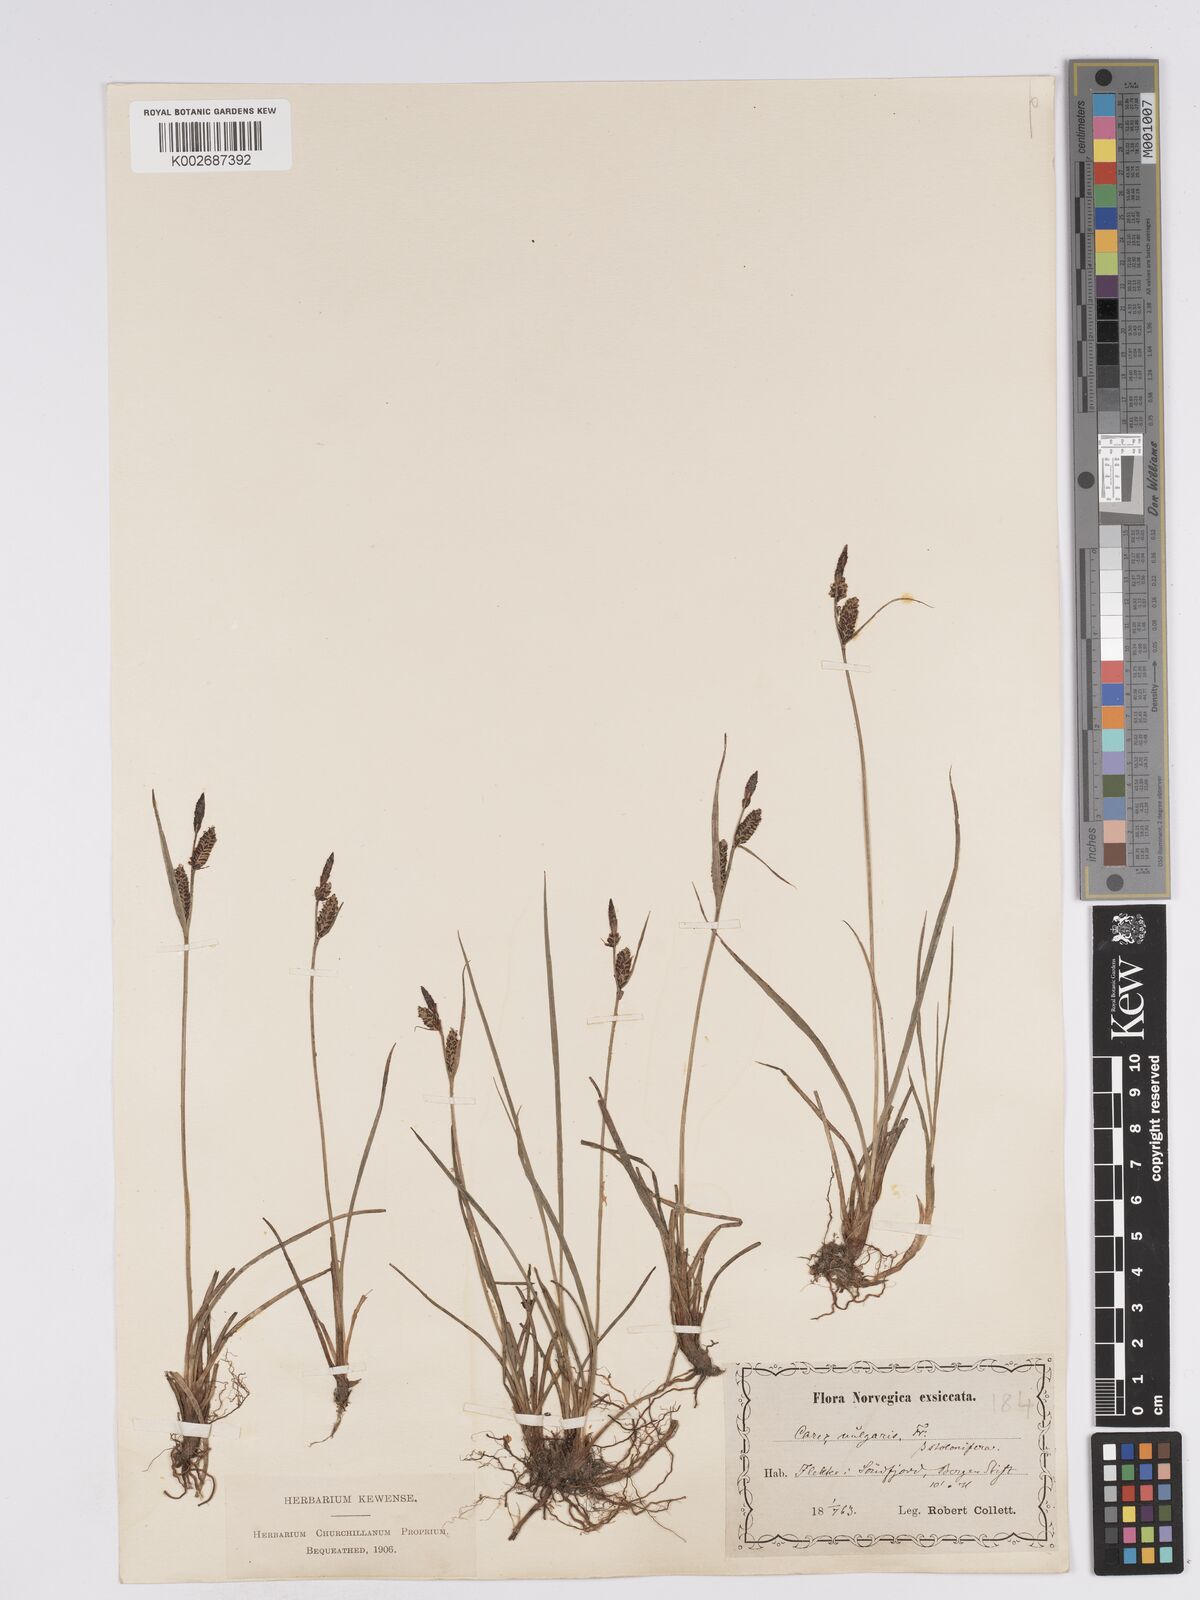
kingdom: Plantae
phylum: Tracheophyta
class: Liliopsida
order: Poales
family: Cyperaceae
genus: Carex
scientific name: Carex nigra
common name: Common sedge
